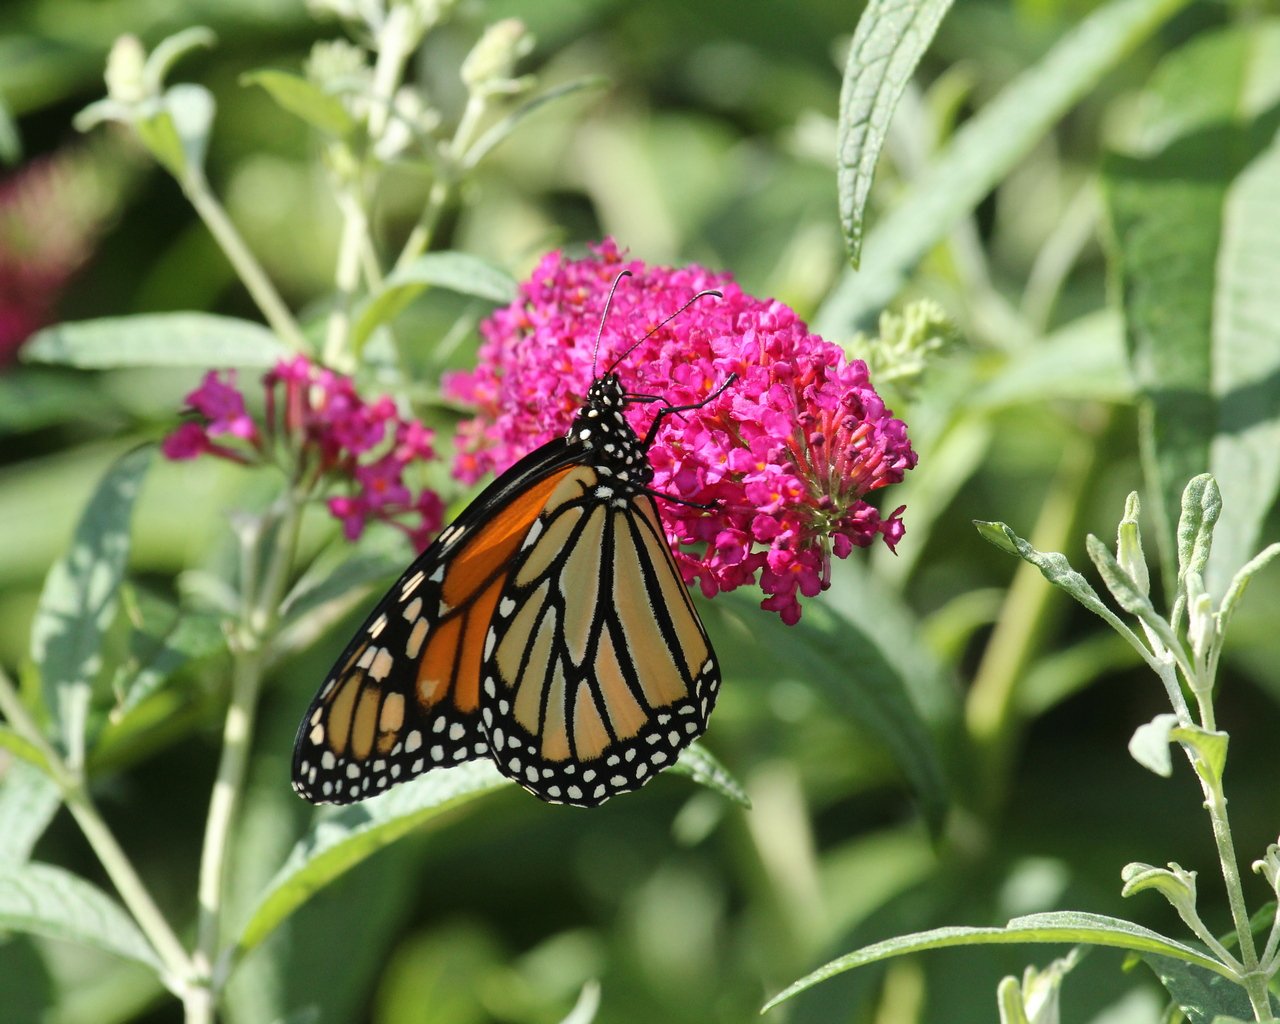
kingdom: Animalia
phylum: Arthropoda
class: Insecta
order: Lepidoptera
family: Nymphalidae
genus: Danaus
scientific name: Danaus plexippus
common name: Monarch
